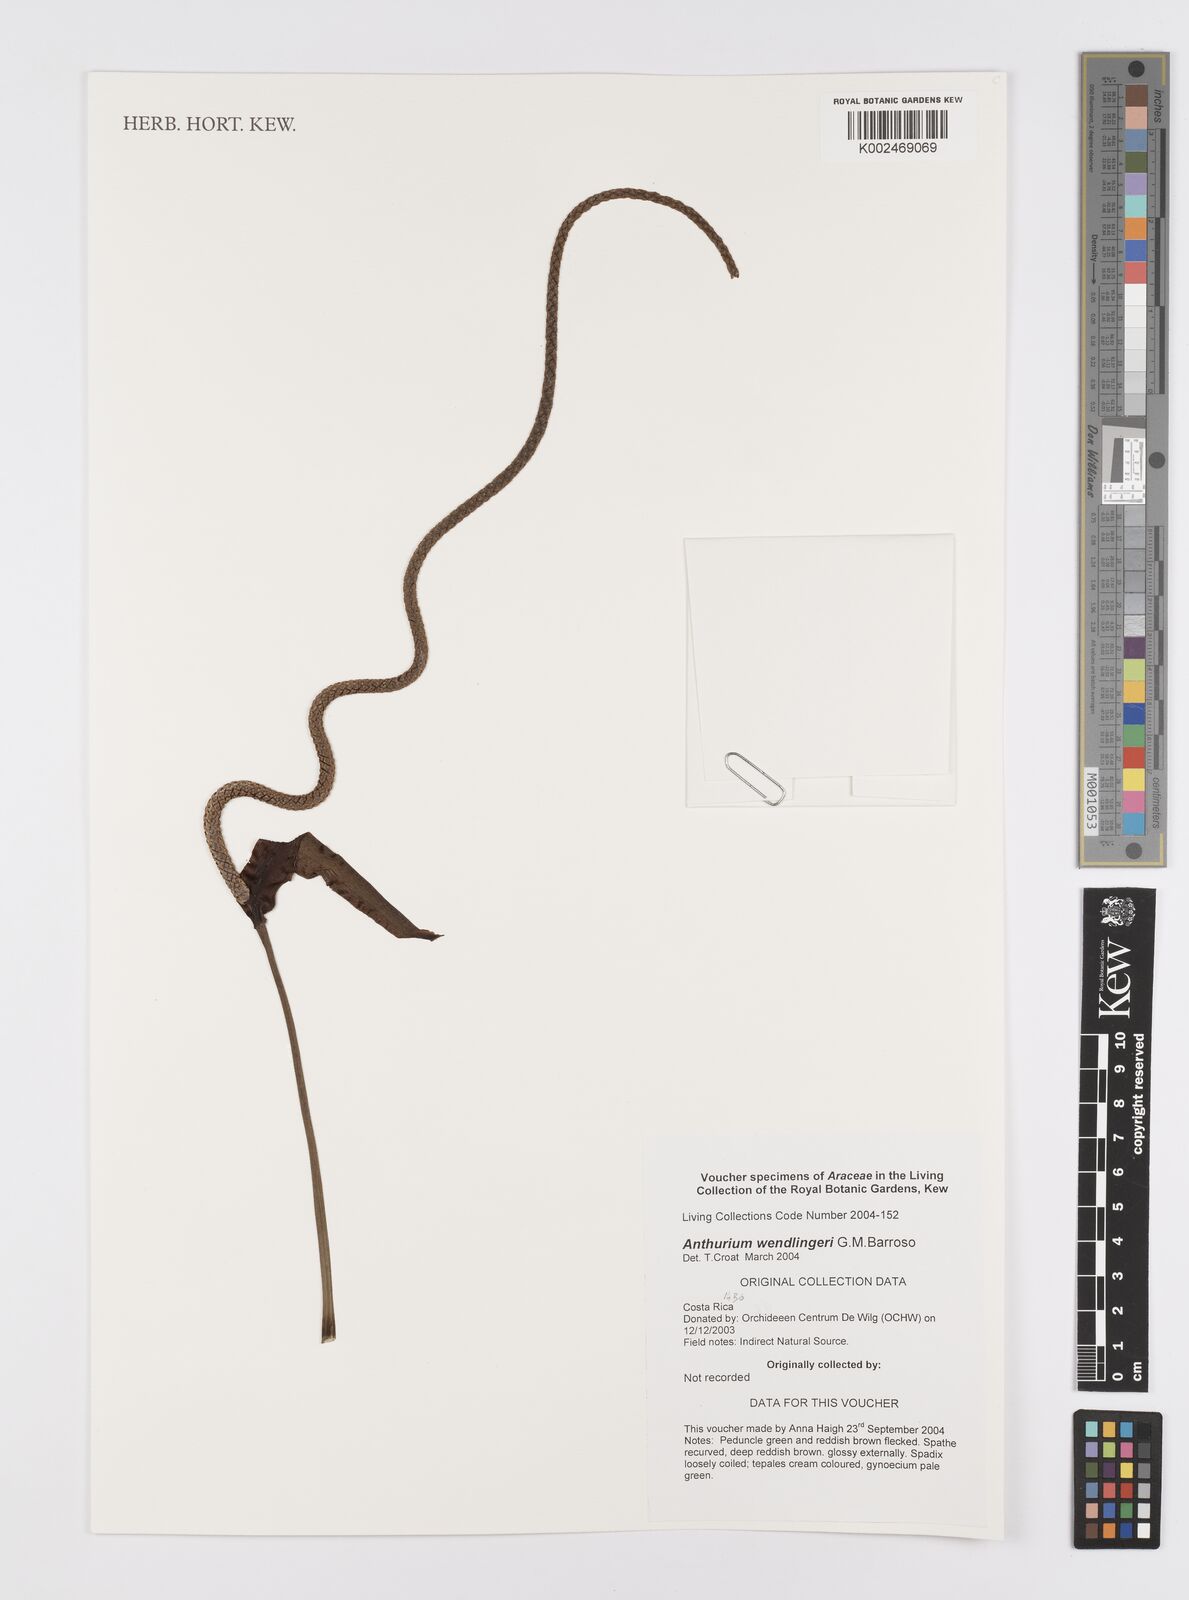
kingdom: Plantae
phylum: Tracheophyta
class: Liliopsida
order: Alismatales
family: Araceae
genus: Anthurium
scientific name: Anthurium wendlingeri
